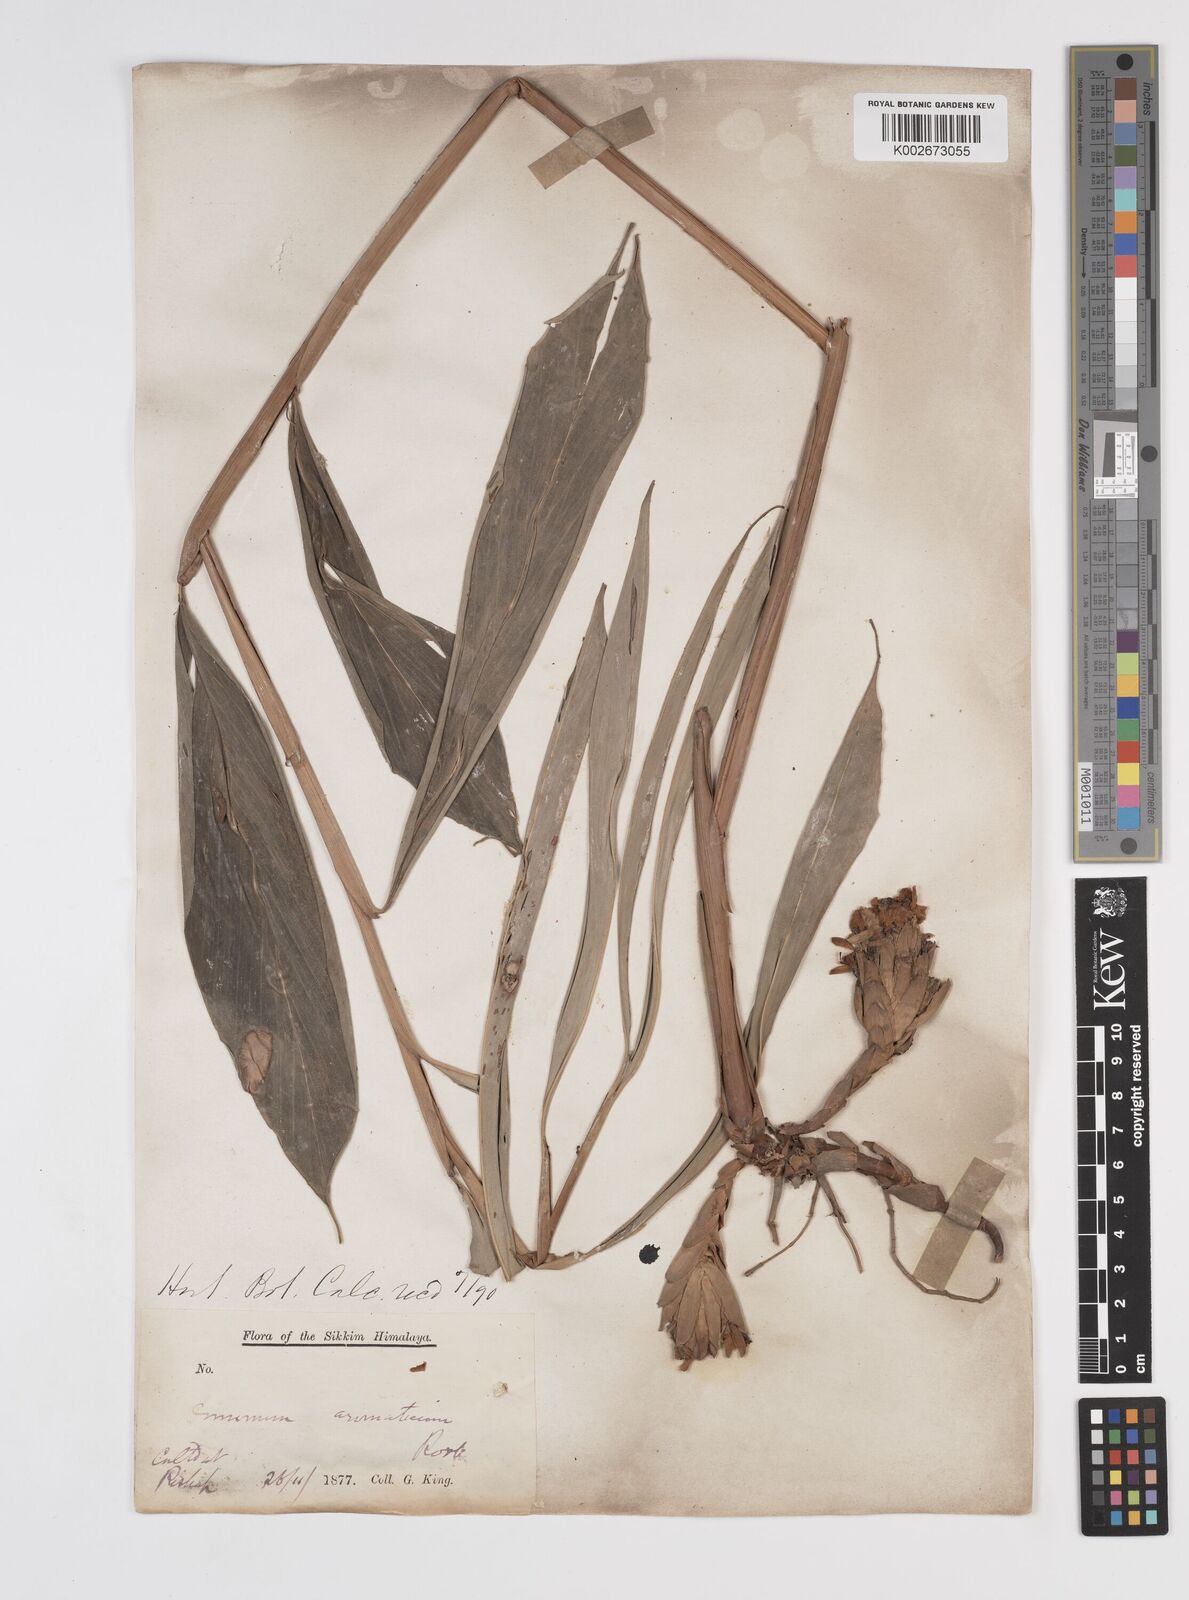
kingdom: Plantae
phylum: Tracheophyta
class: Liliopsida
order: Zingiberales
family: Zingiberaceae
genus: Wurfbainia
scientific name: Wurfbainia aromatica
